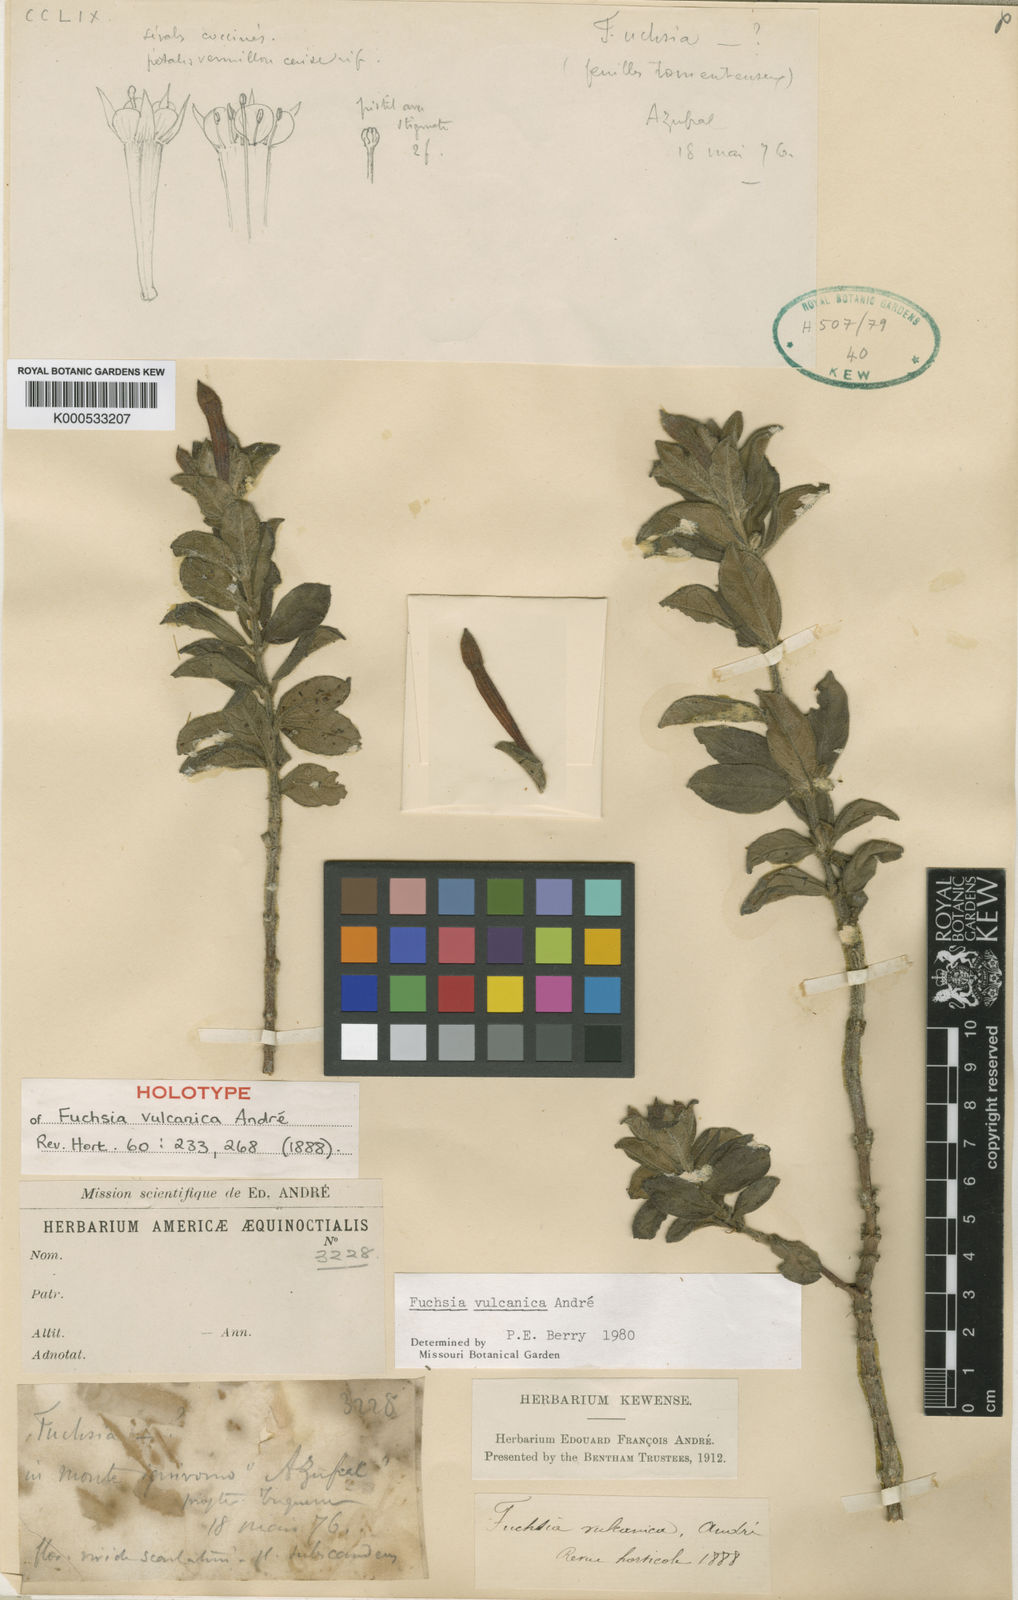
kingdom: Plantae
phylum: Tracheophyta
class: Magnoliopsida
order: Myrtales
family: Onagraceae
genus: Fuchsia
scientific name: Fuchsia
